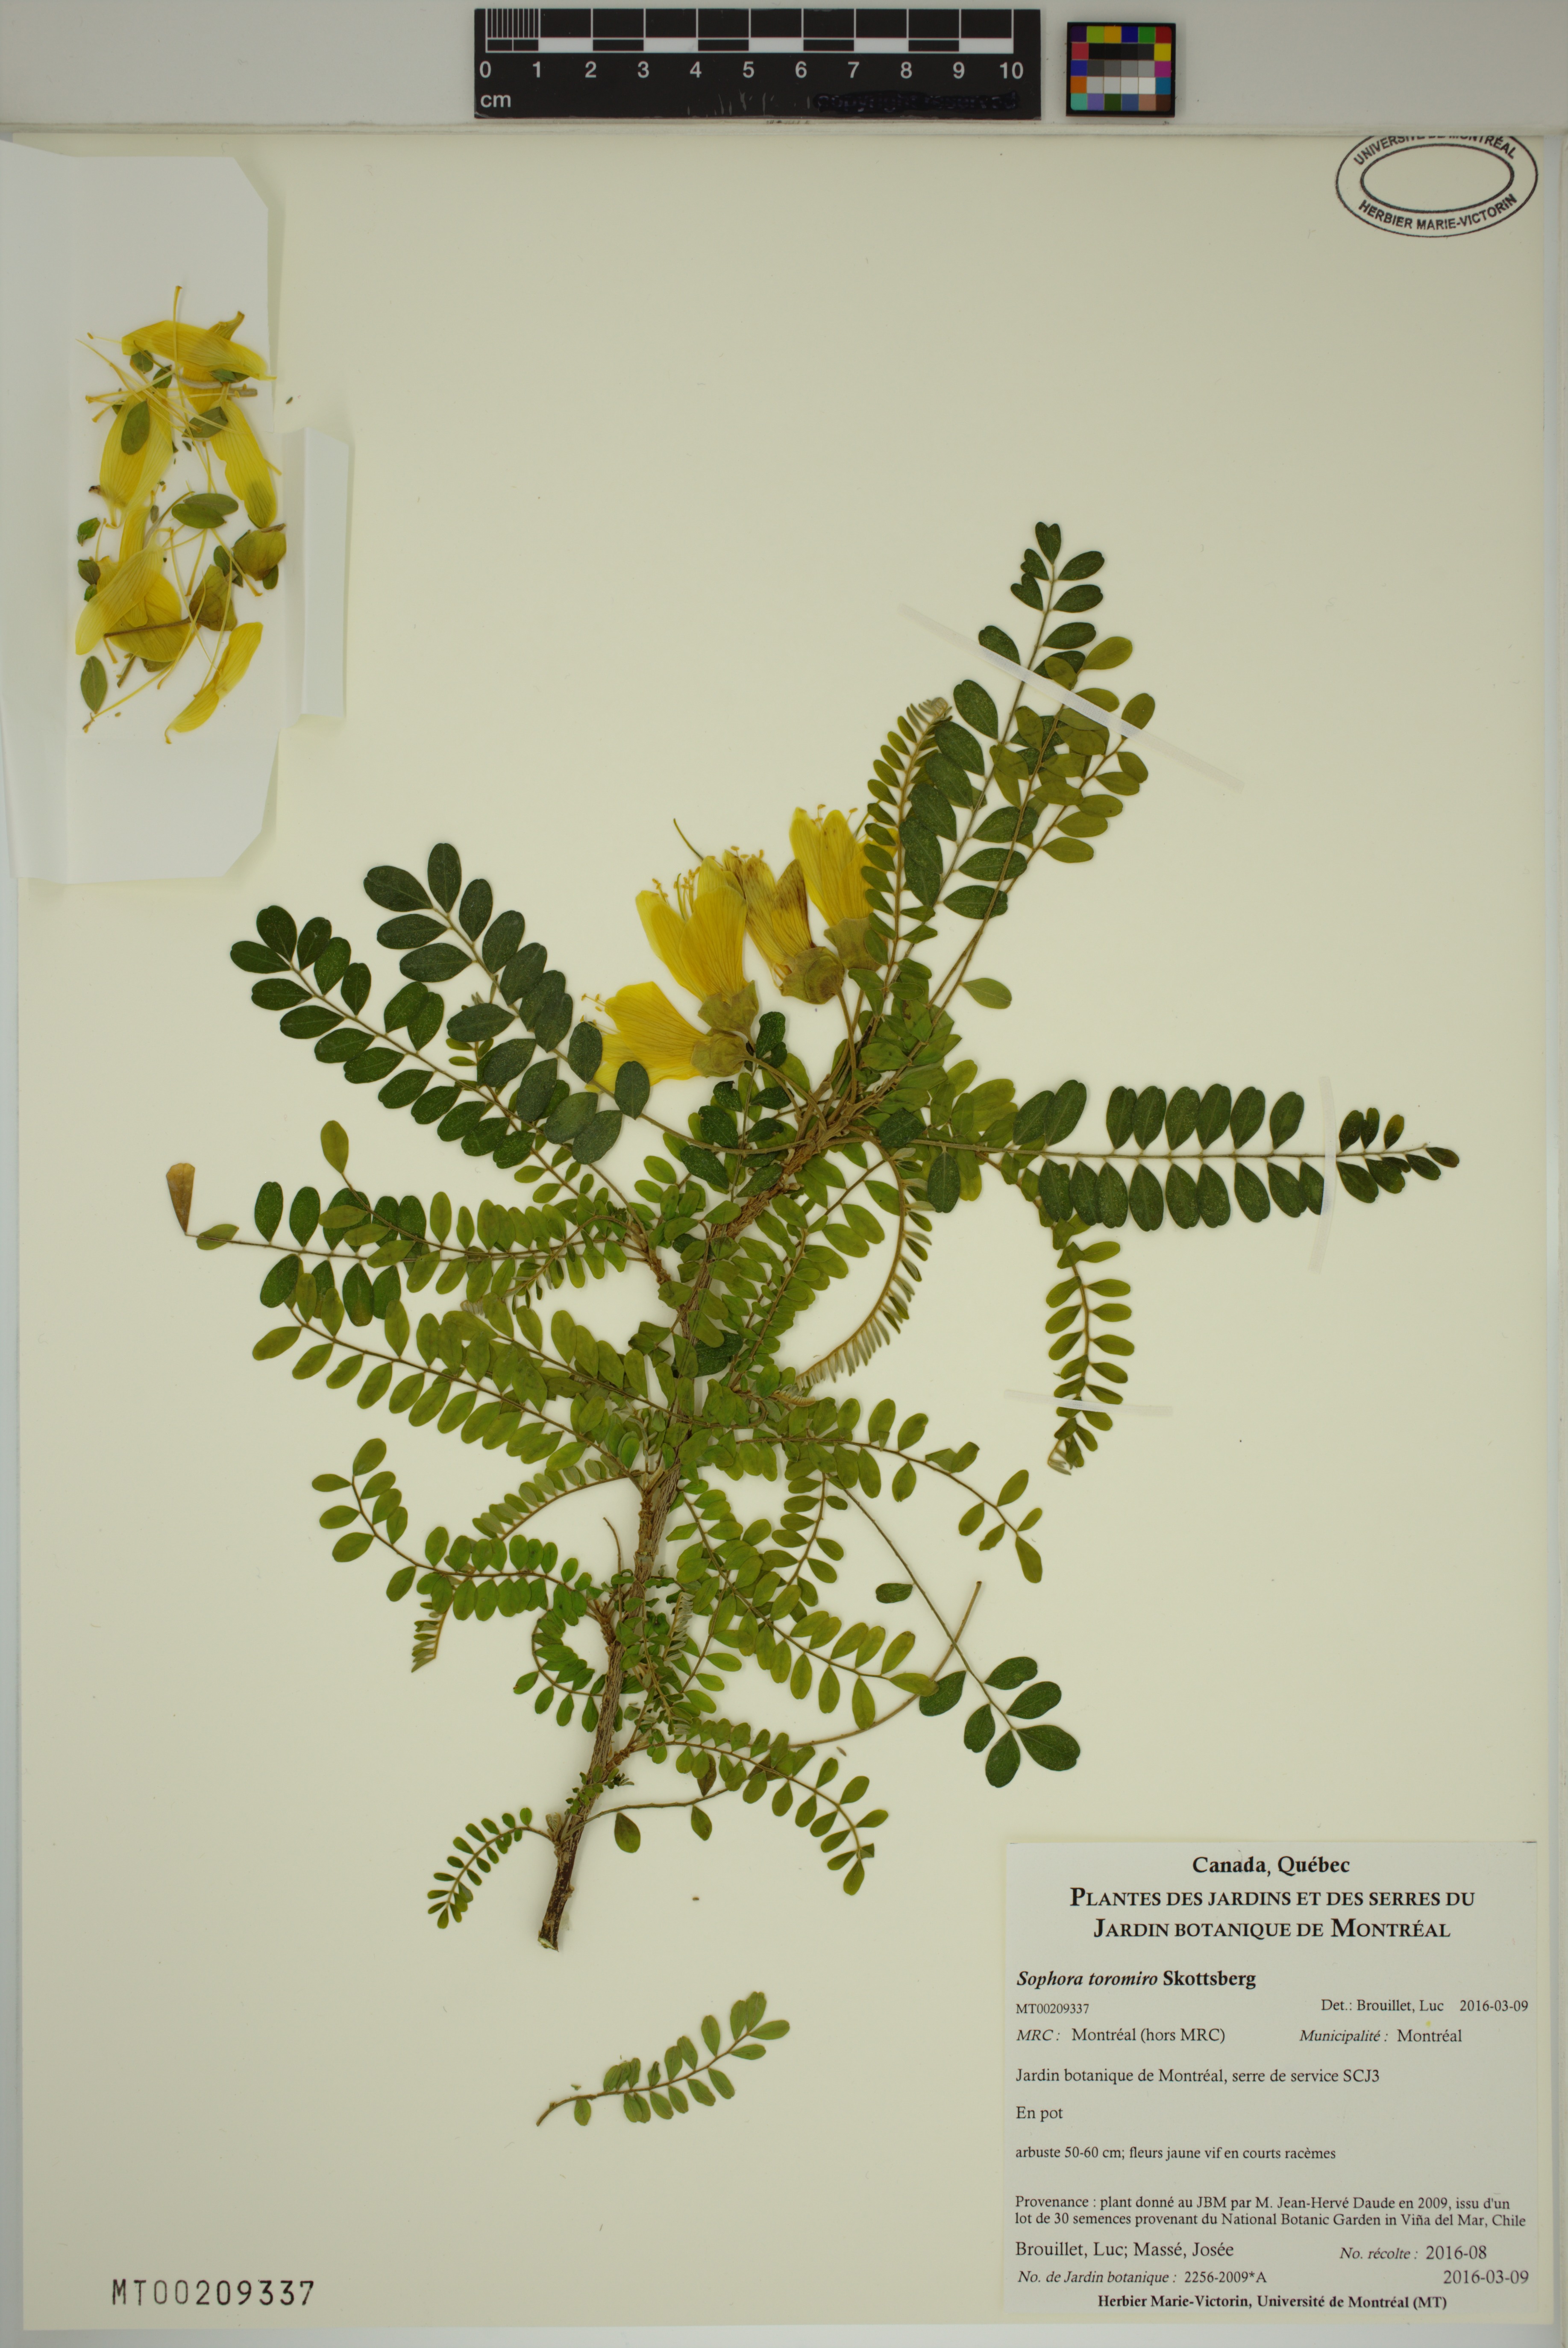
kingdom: Plantae
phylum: Tracheophyta
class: Magnoliopsida
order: Fabales
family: Fabaceae
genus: Sophora
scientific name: Sophora toromiro
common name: Toromiro
